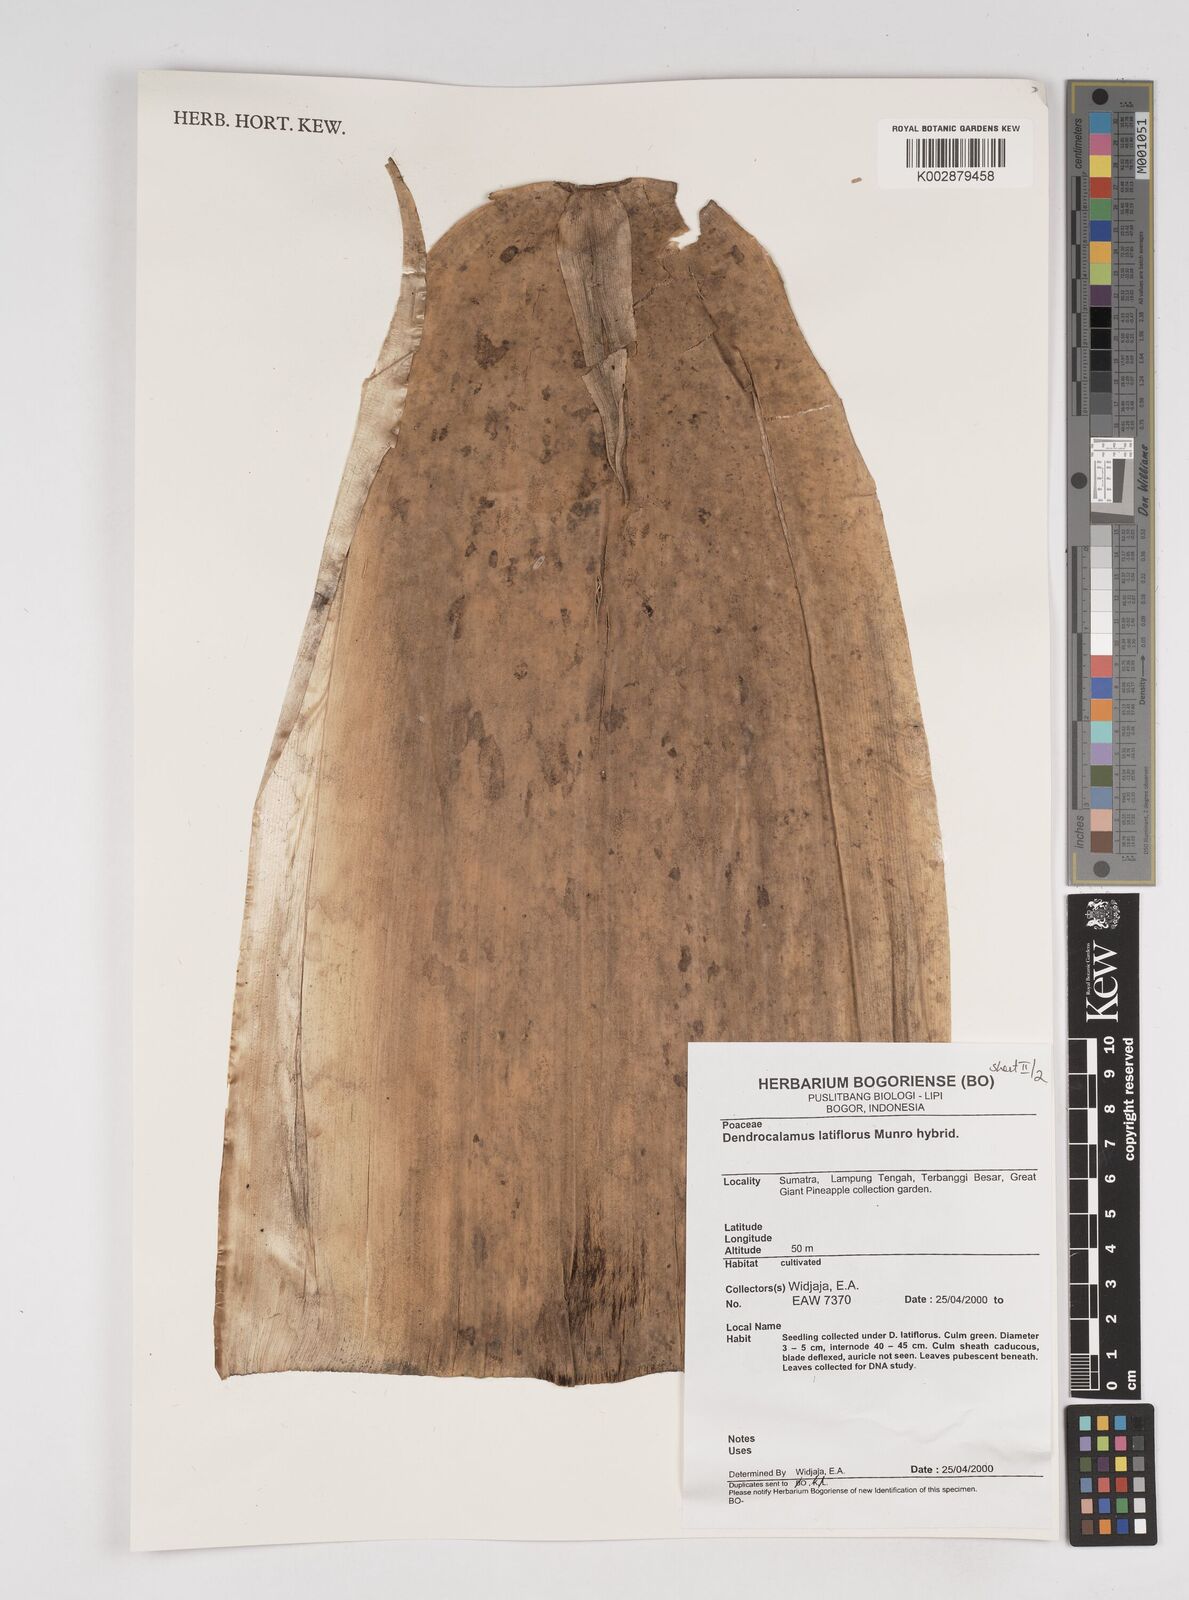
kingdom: Plantae
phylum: Tracheophyta
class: Liliopsida
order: Poales
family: Poaceae
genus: Dendrocalamus
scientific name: Dendrocalamus latiflorus
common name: Giant bamboo
